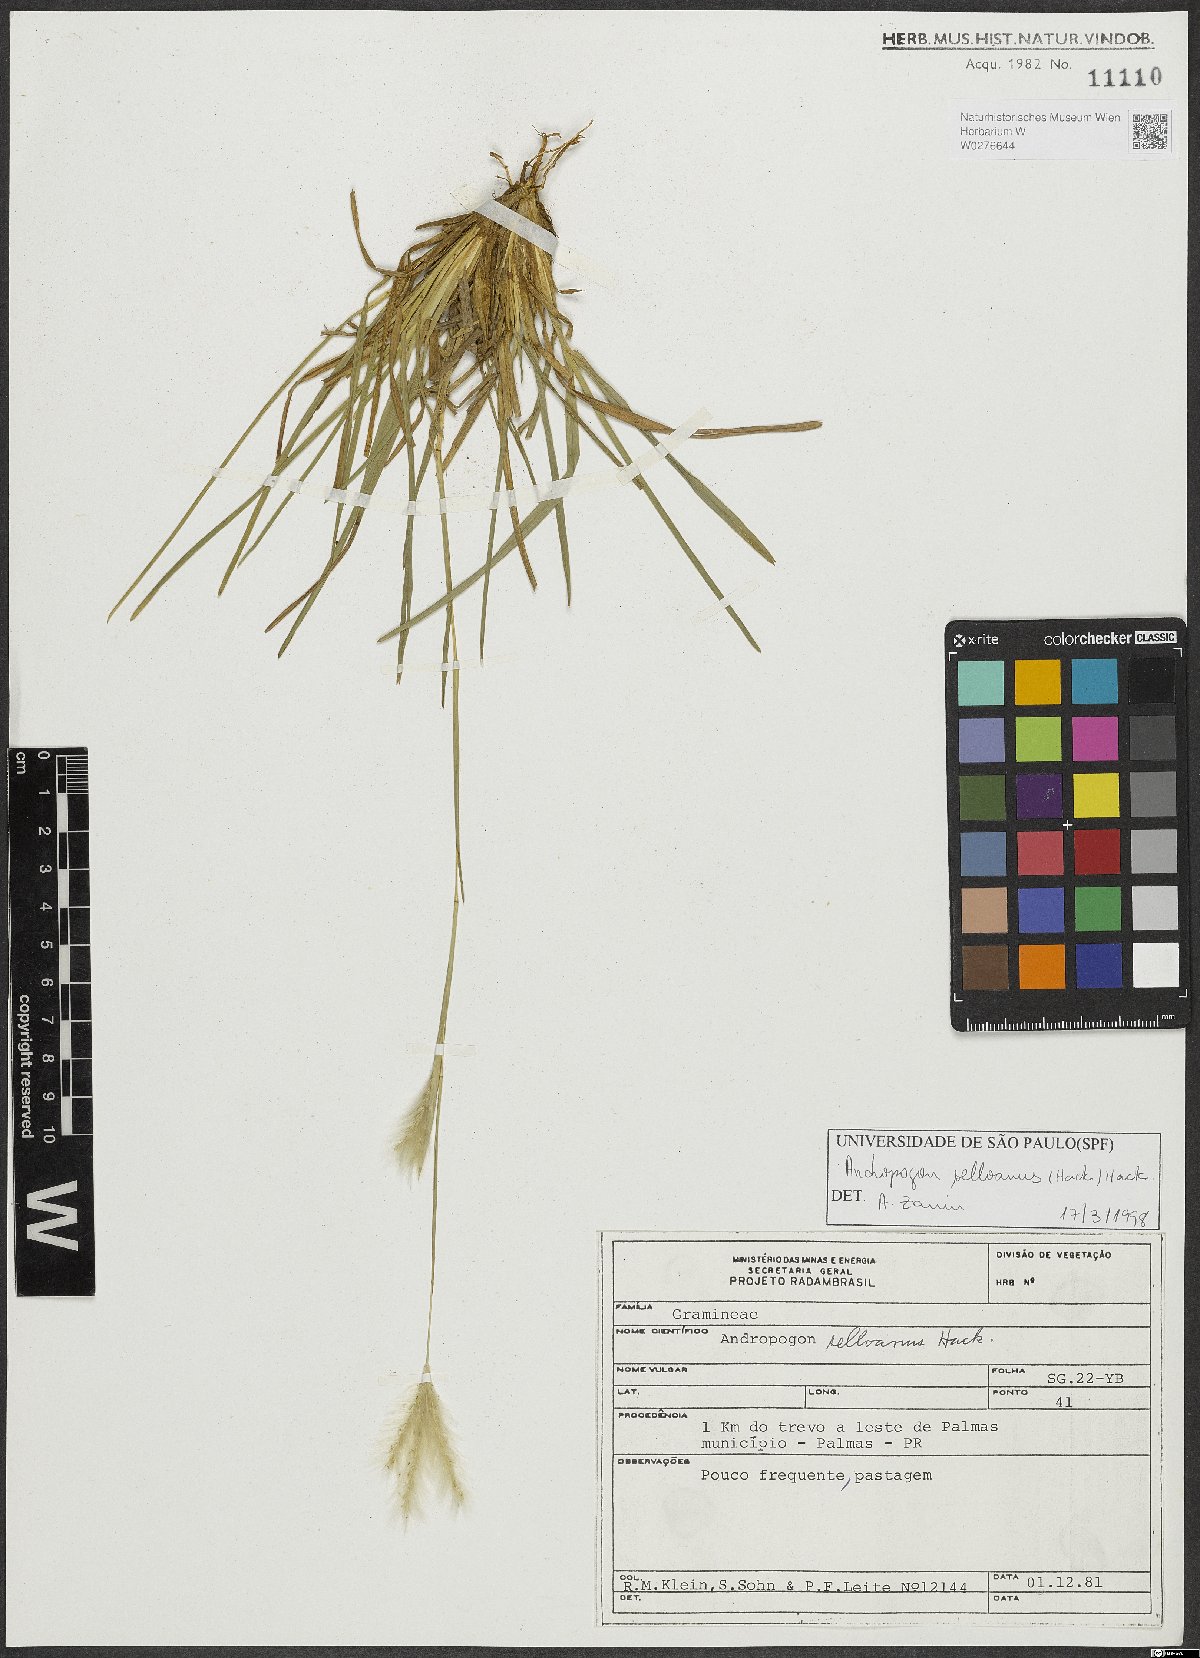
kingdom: Plantae
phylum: Tracheophyta
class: Liliopsida
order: Poales
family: Poaceae
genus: Andropogon
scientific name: Andropogon selloanus
